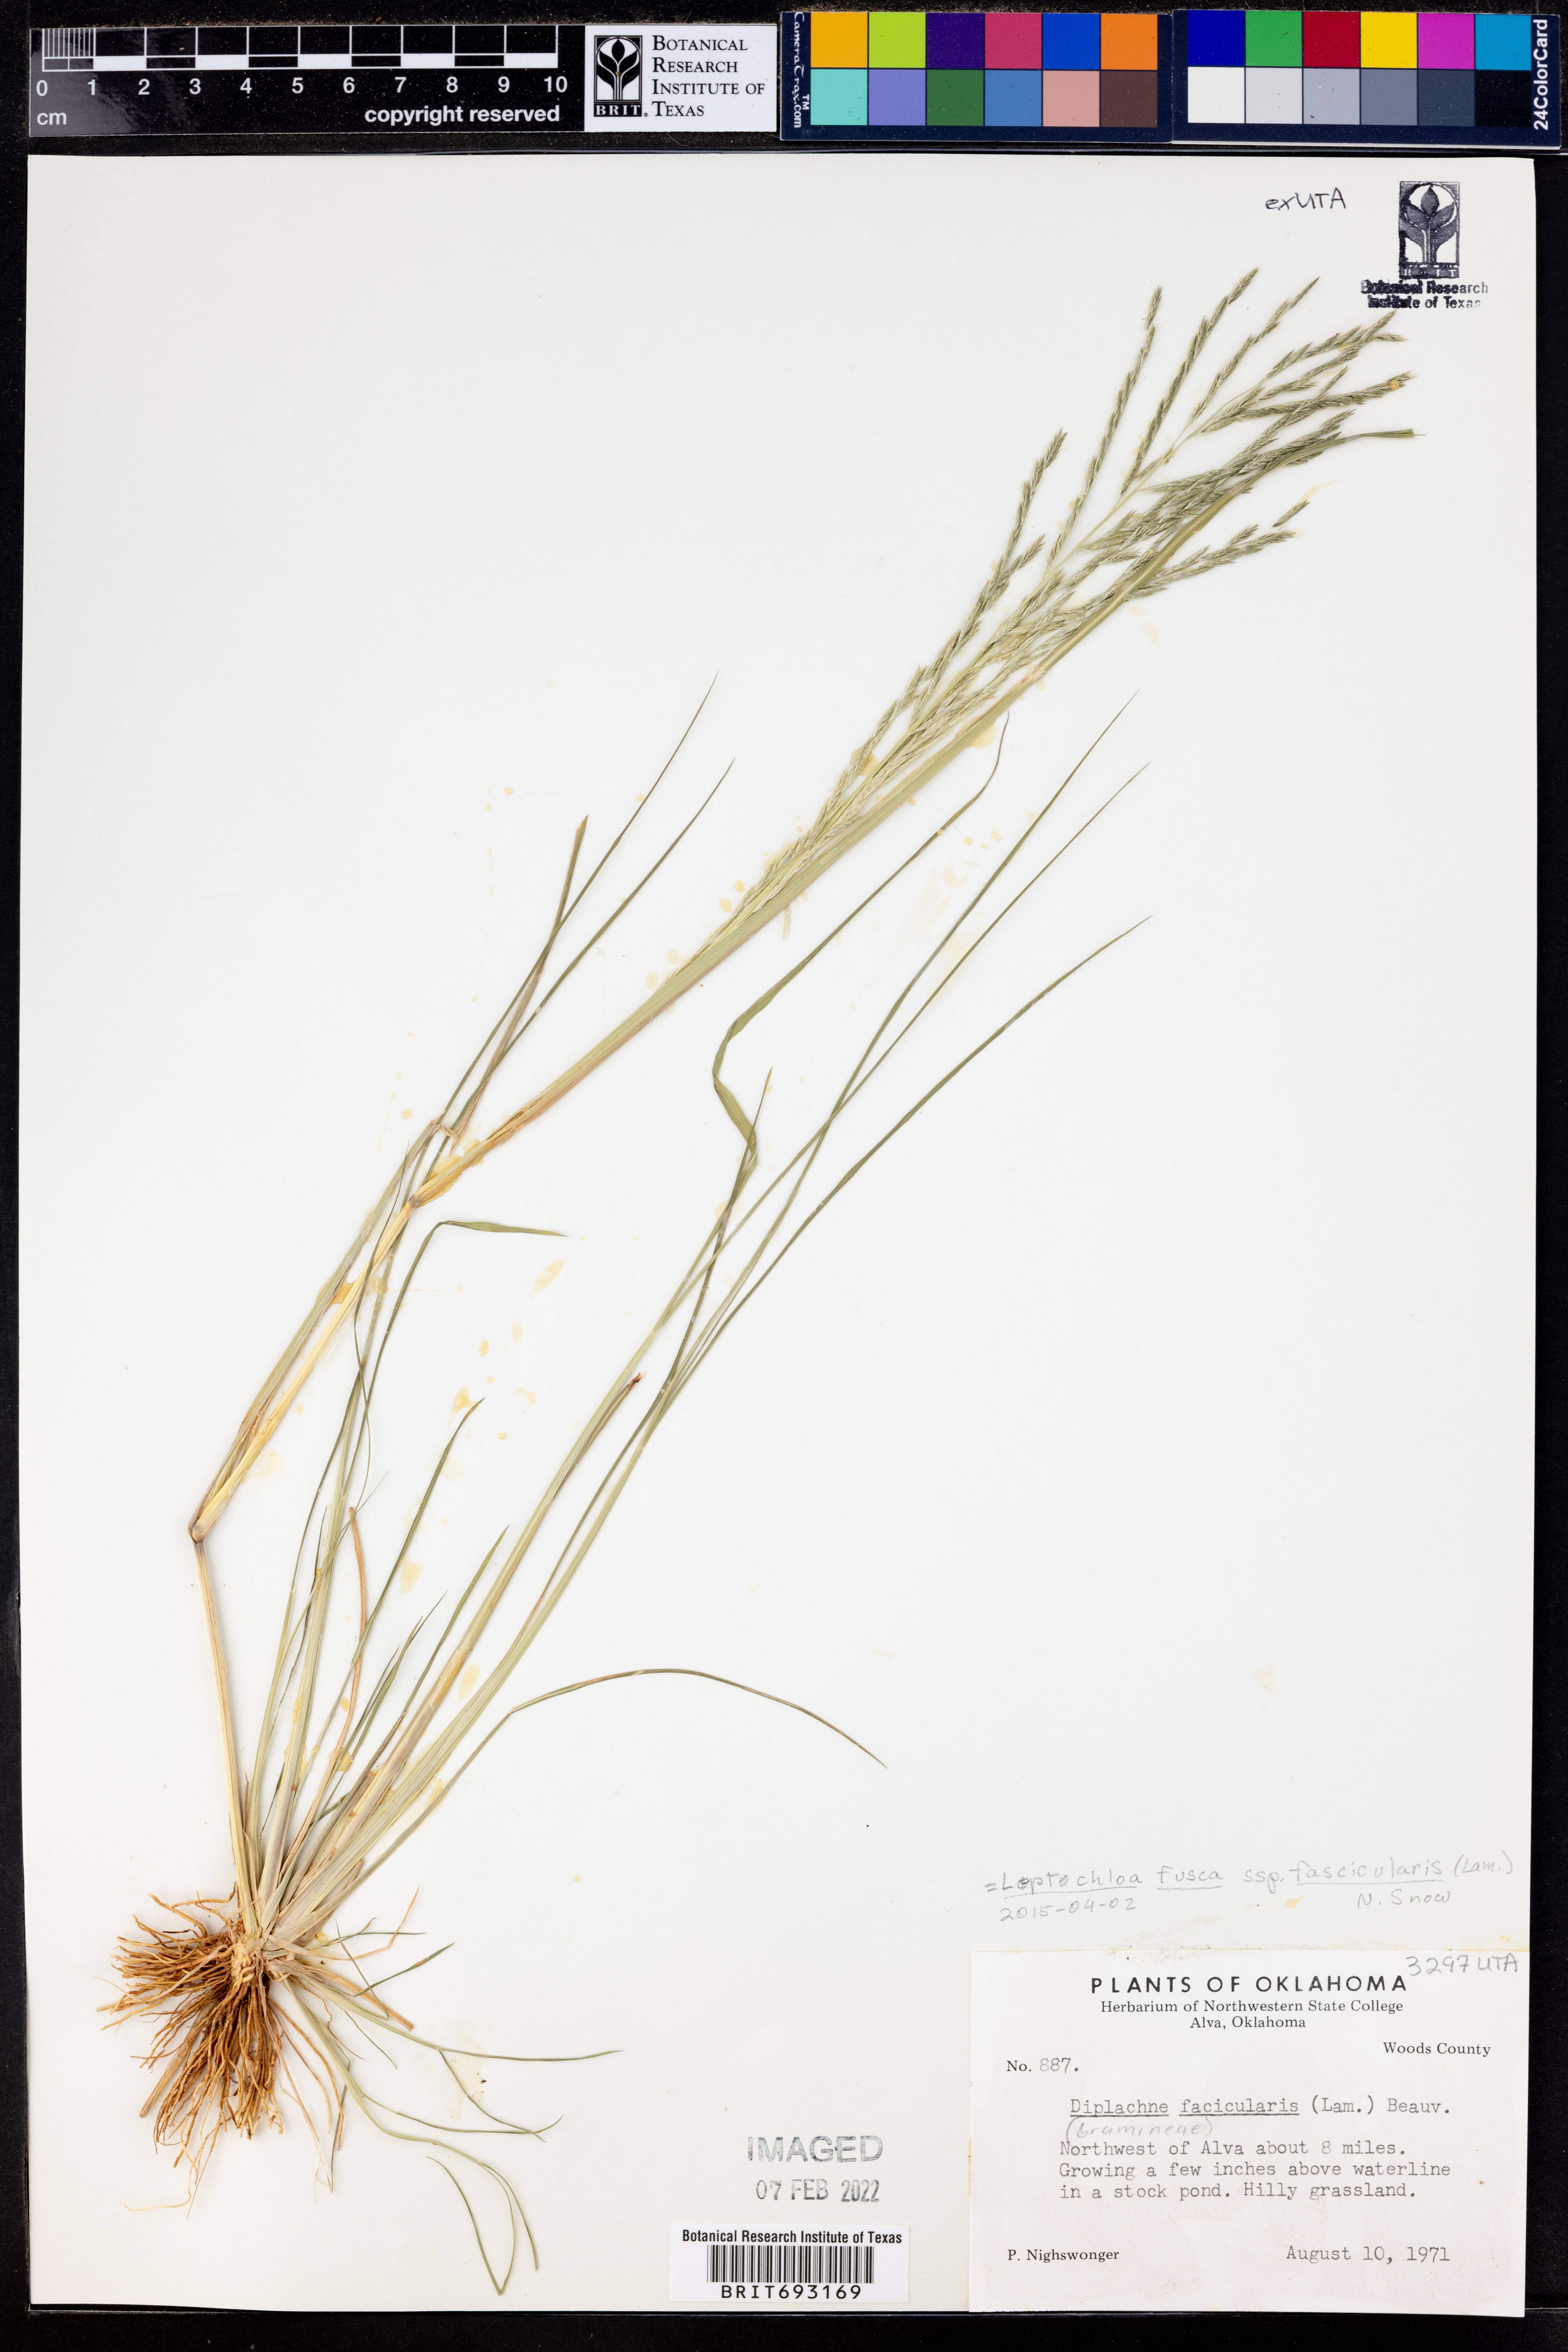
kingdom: Plantae
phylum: Tracheophyta
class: Liliopsida
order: Poales
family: Poaceae
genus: Diplachne
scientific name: Diplachne fusca
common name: Brown beetle grass
